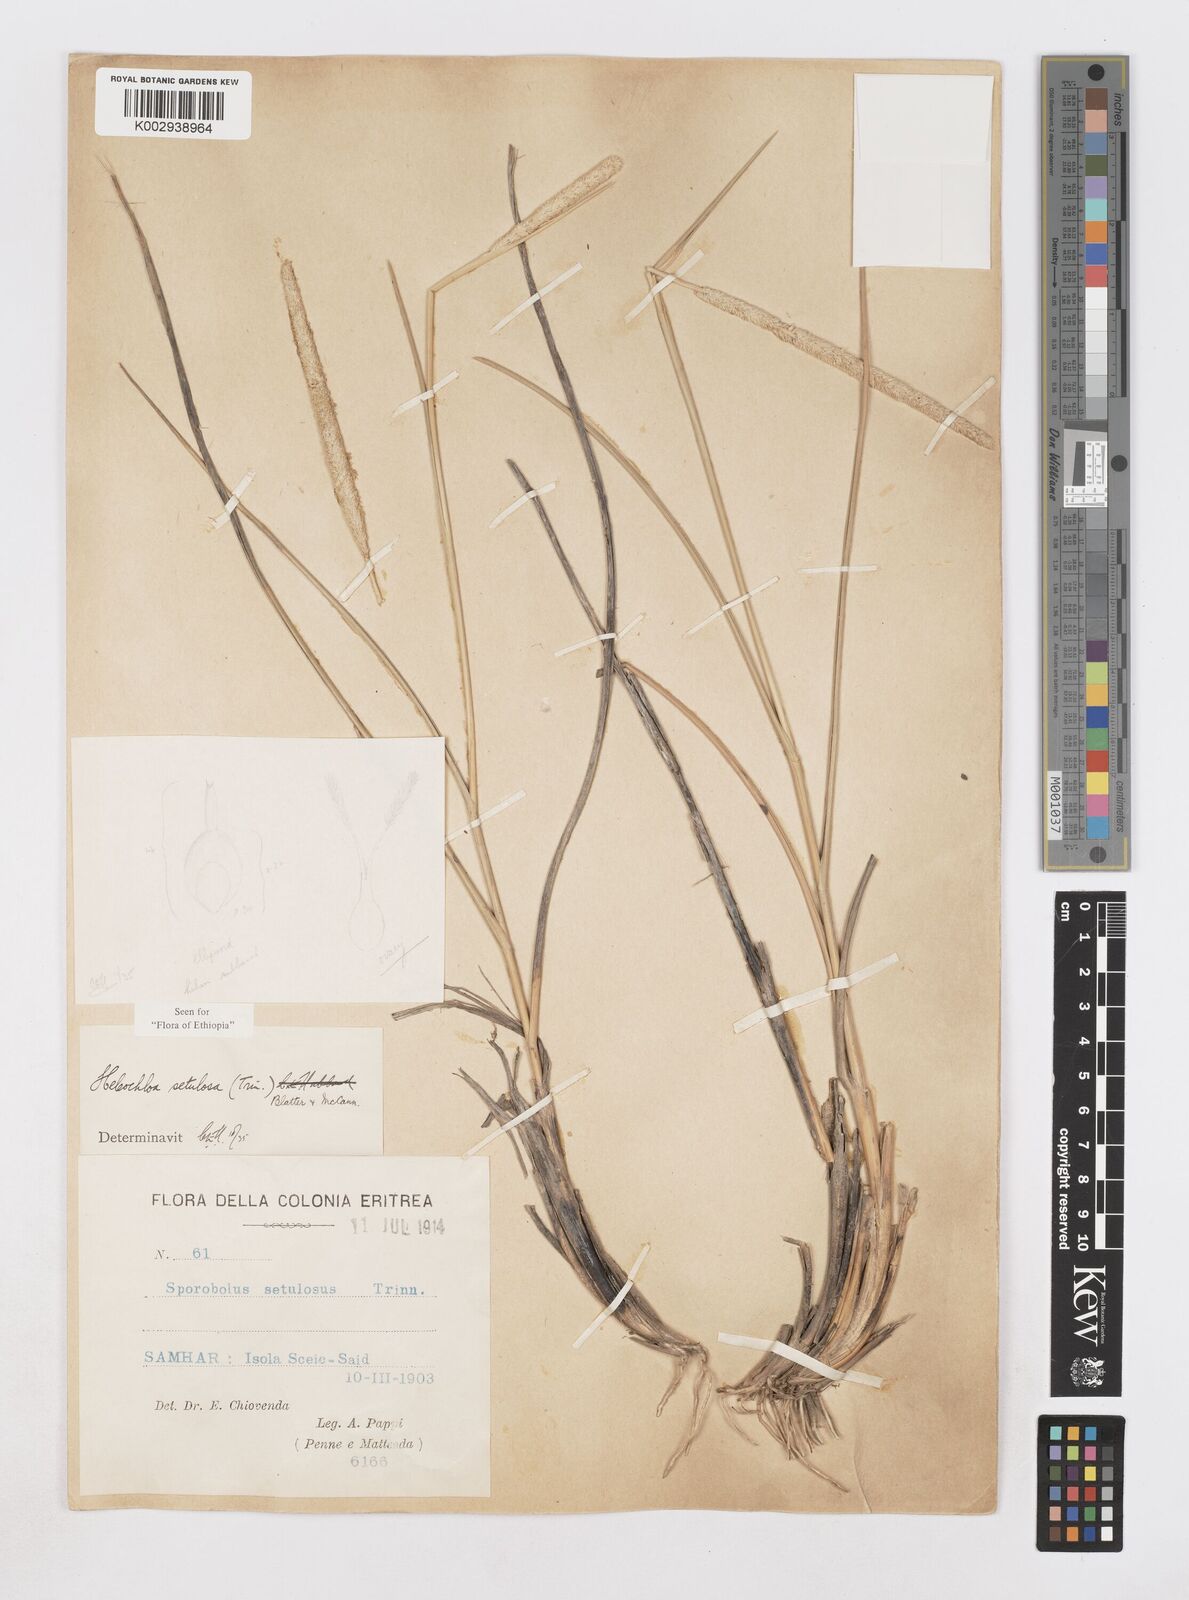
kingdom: Plantae
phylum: Tracheophyta
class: Liliopsida
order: Poales
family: Poaceae
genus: Urochondra
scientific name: Urochondra setulosa
